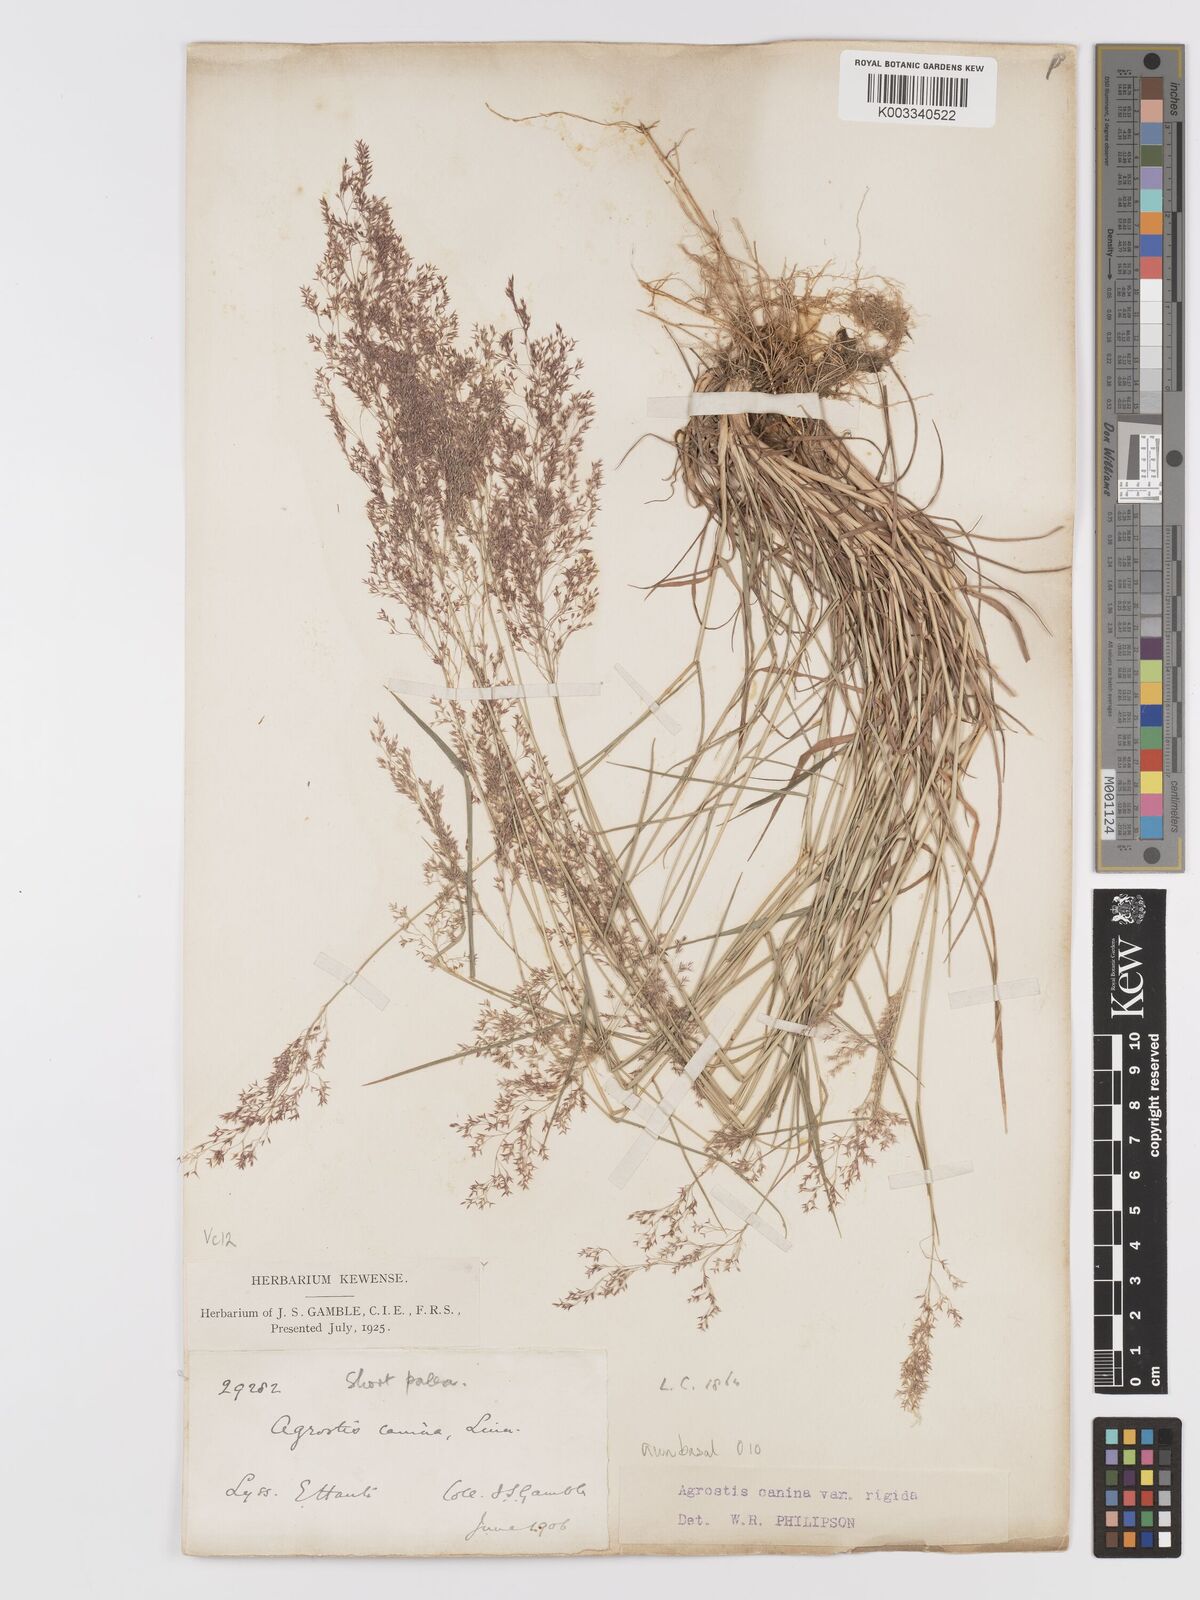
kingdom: Plantae
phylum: Tracheophyta
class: Liliopsida
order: Poales
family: Poaceae
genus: Agrostis
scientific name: Agrostis capillaris
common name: Colonial bentgrass
